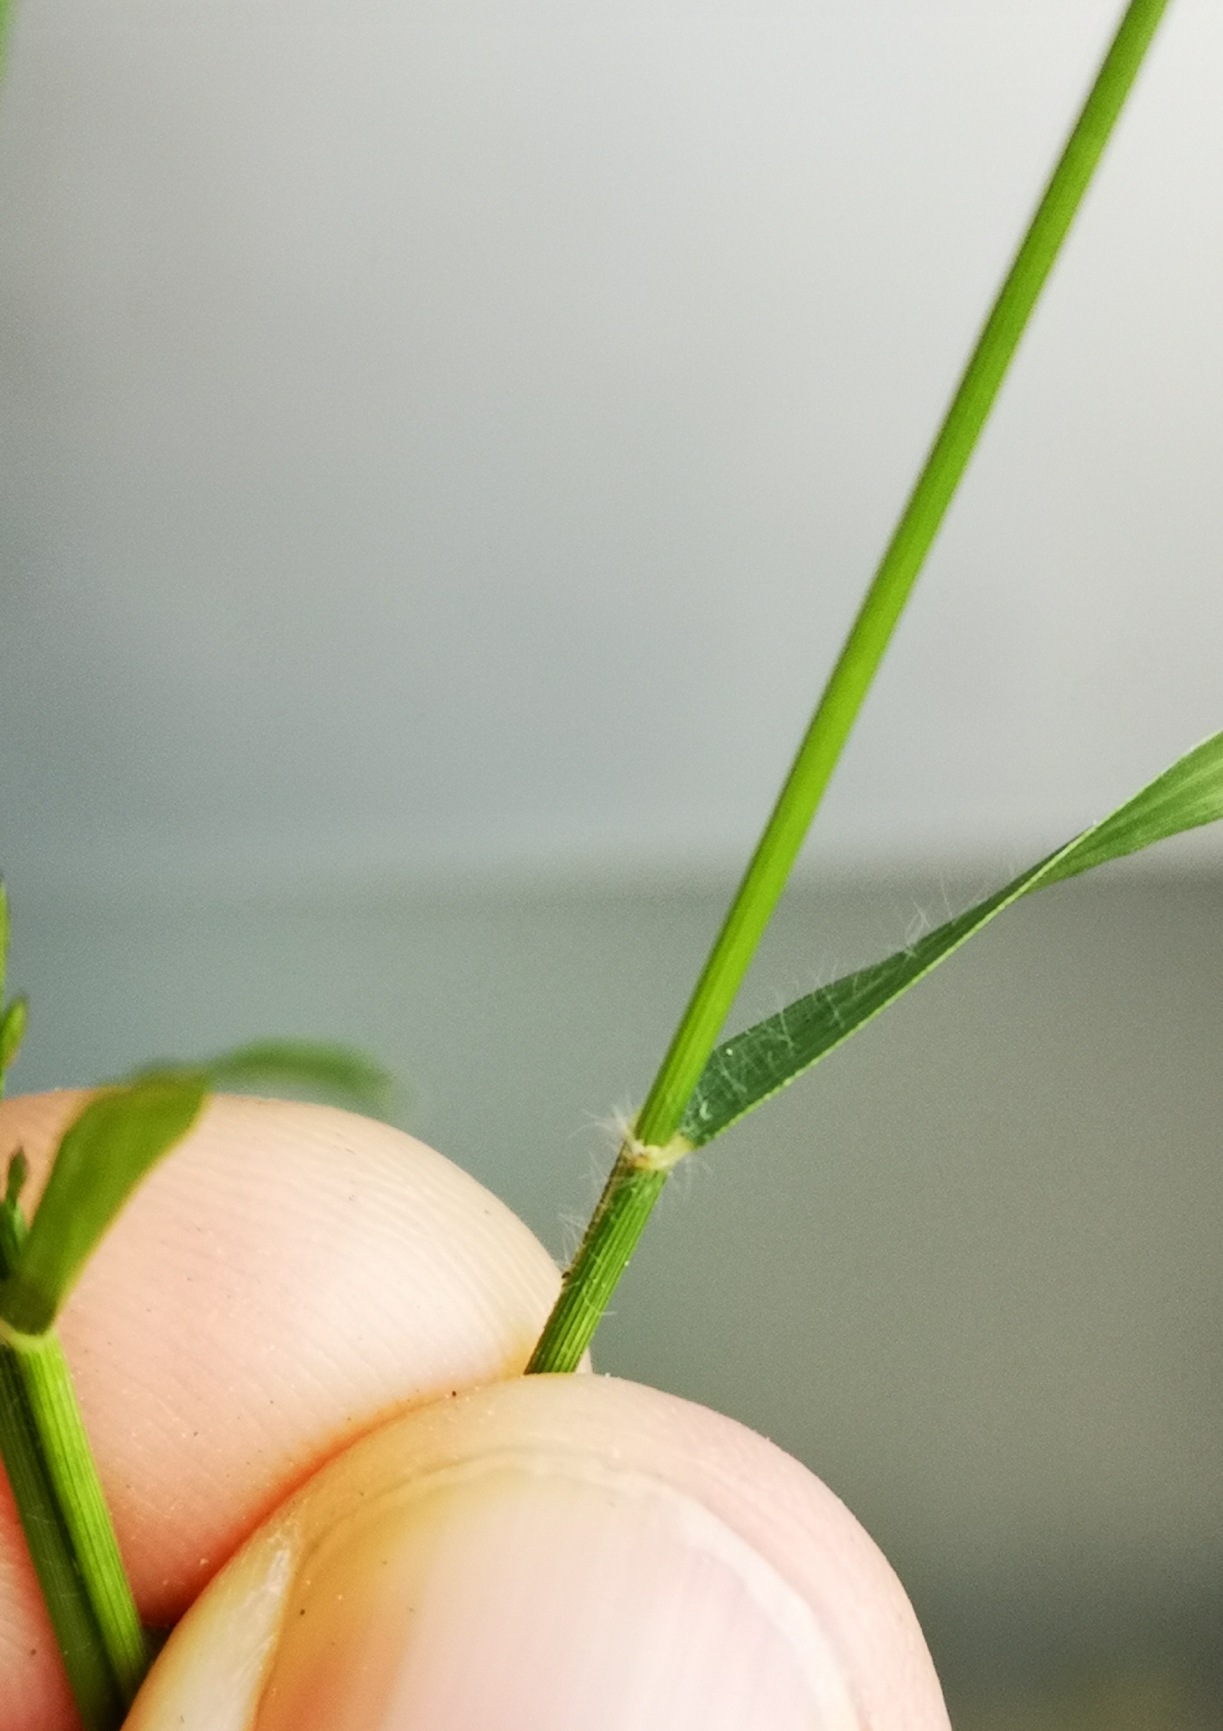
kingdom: Plantae
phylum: Tracheophyta
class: Liliopsida
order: Poales
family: Poaceae
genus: Eragrostis
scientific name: Eragrostis minor
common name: Liden kærlighedsgræs
